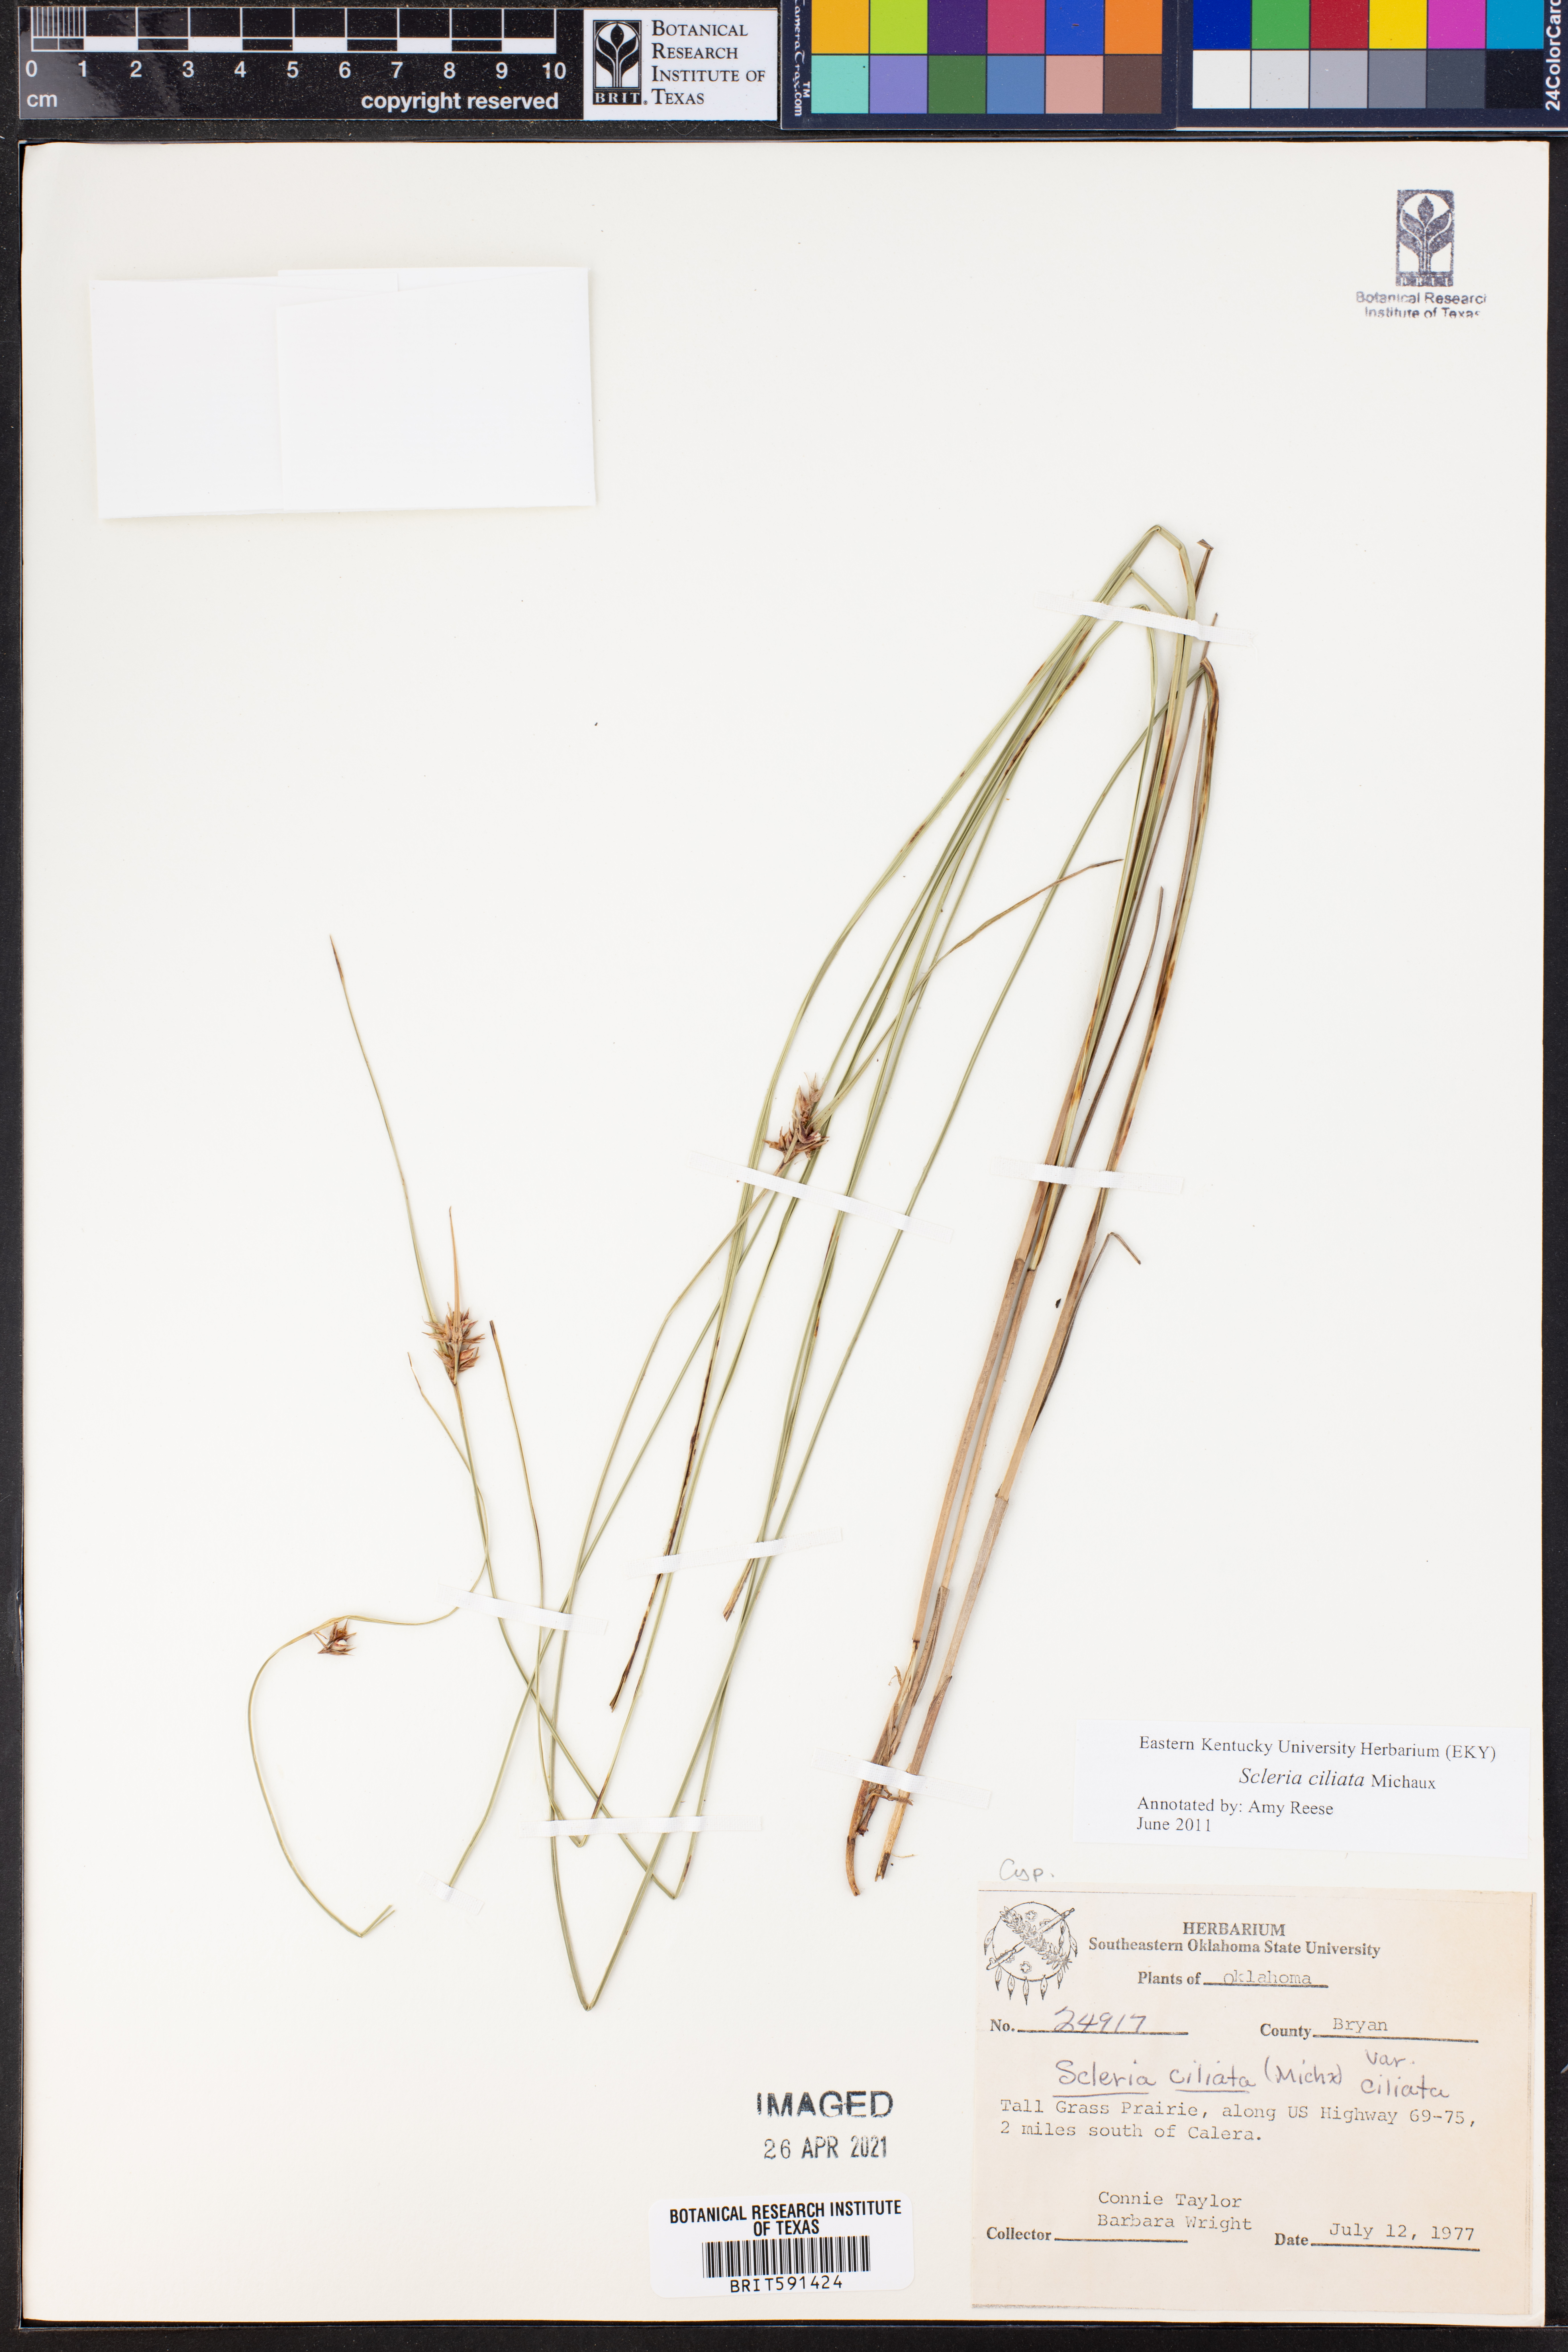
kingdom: Plantae
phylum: Tracheophyta
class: Liliopsida
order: Poales
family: Cyperaceae
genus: Scleria
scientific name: Scleria ciliata
